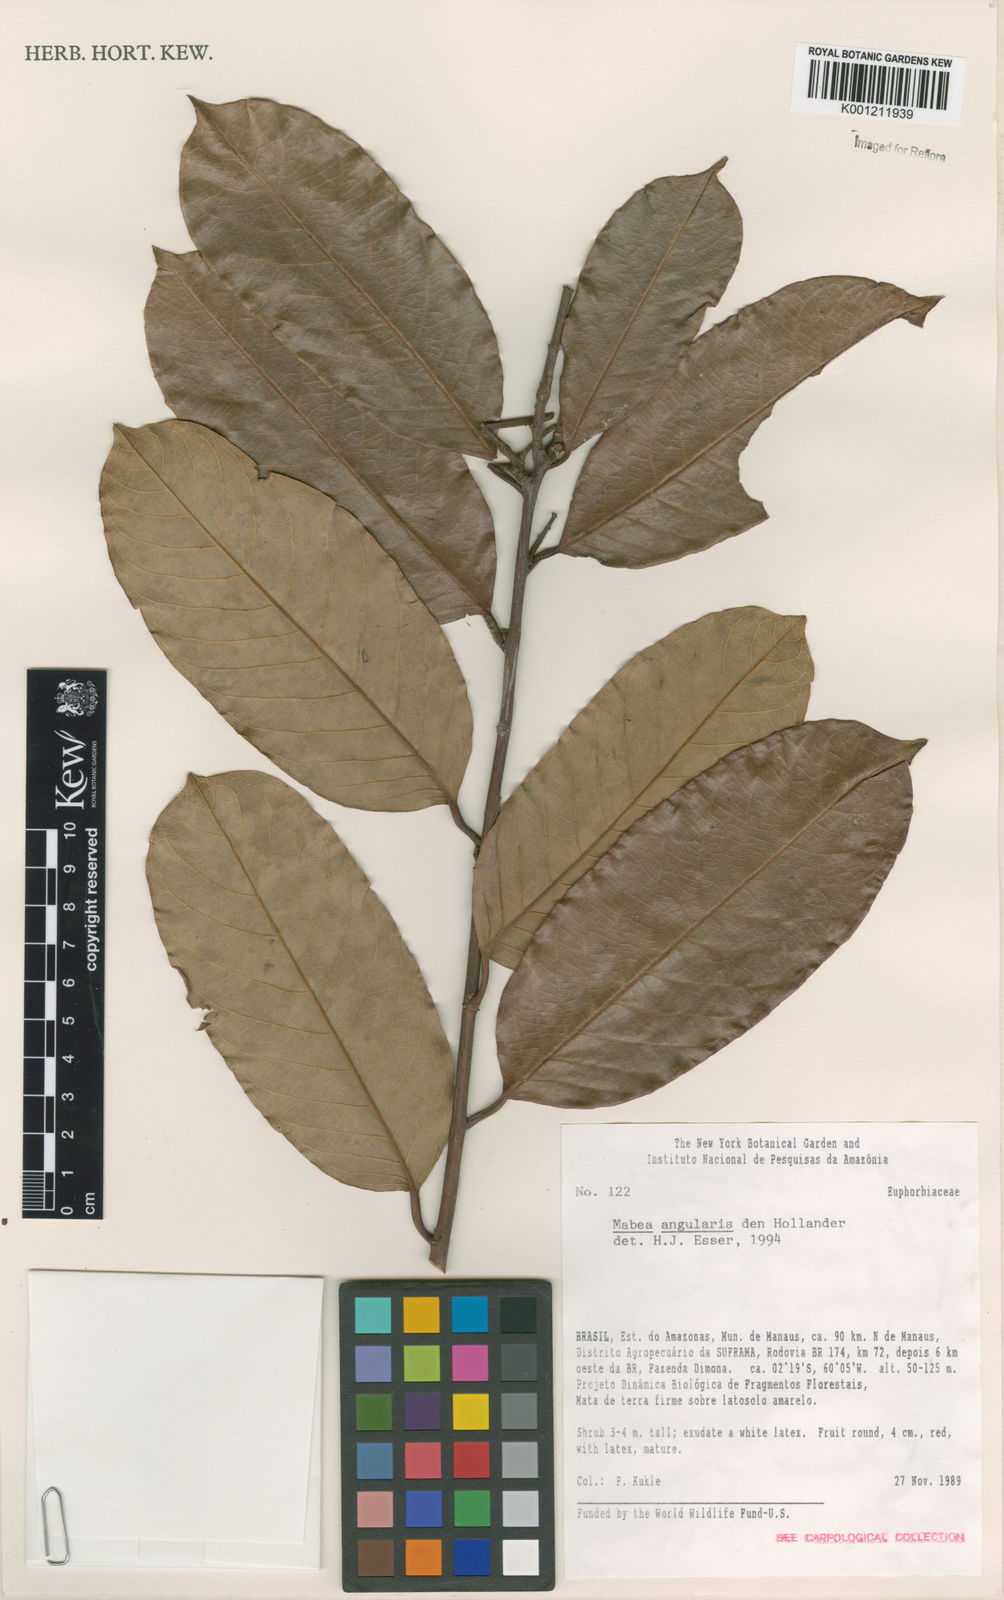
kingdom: Plantae
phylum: Tracheophyta
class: Magnoliopsida
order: Malpighiales
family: Euphorbiaceae
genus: Mabea
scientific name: Mabea angularis
